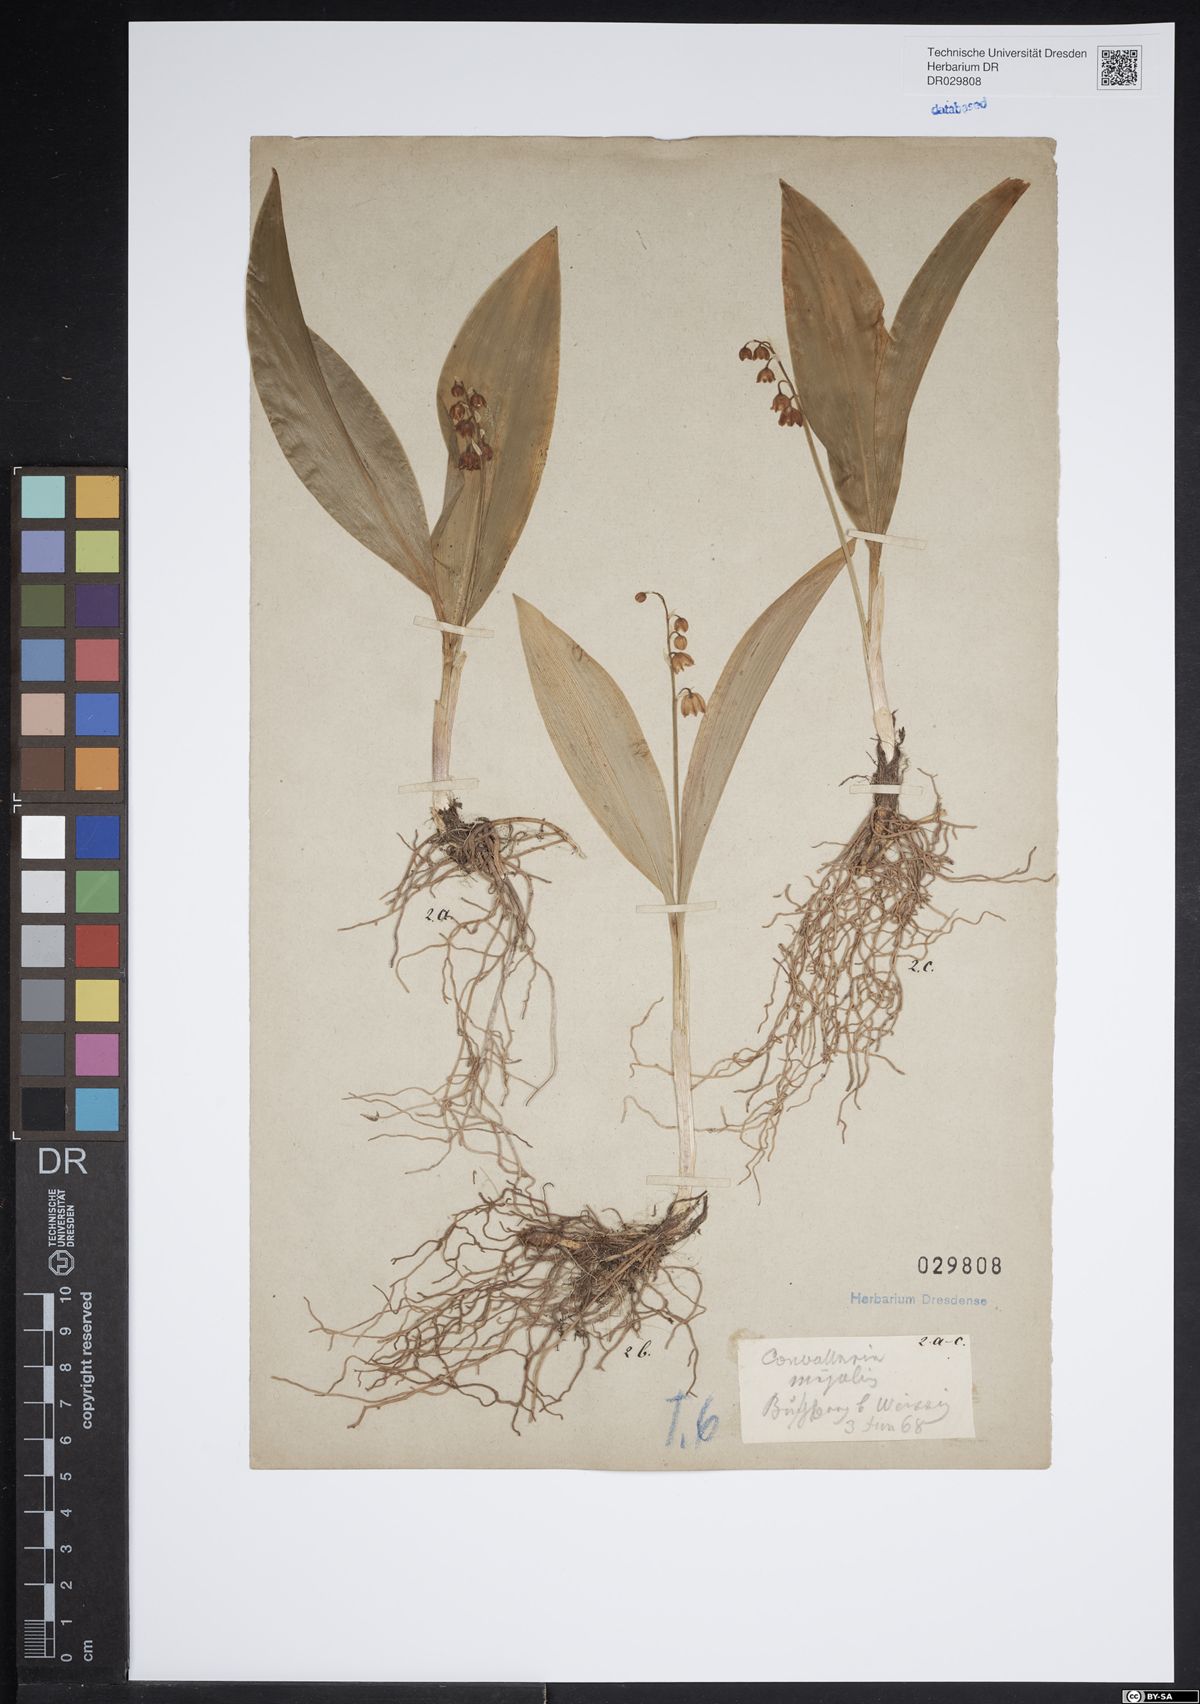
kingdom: Plantae
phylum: Tracheophyta
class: Liliopsida
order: Asparagales
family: Asparagaceae
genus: Convallaria
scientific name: Convallaria majalis
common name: Lily-of-the-valley
